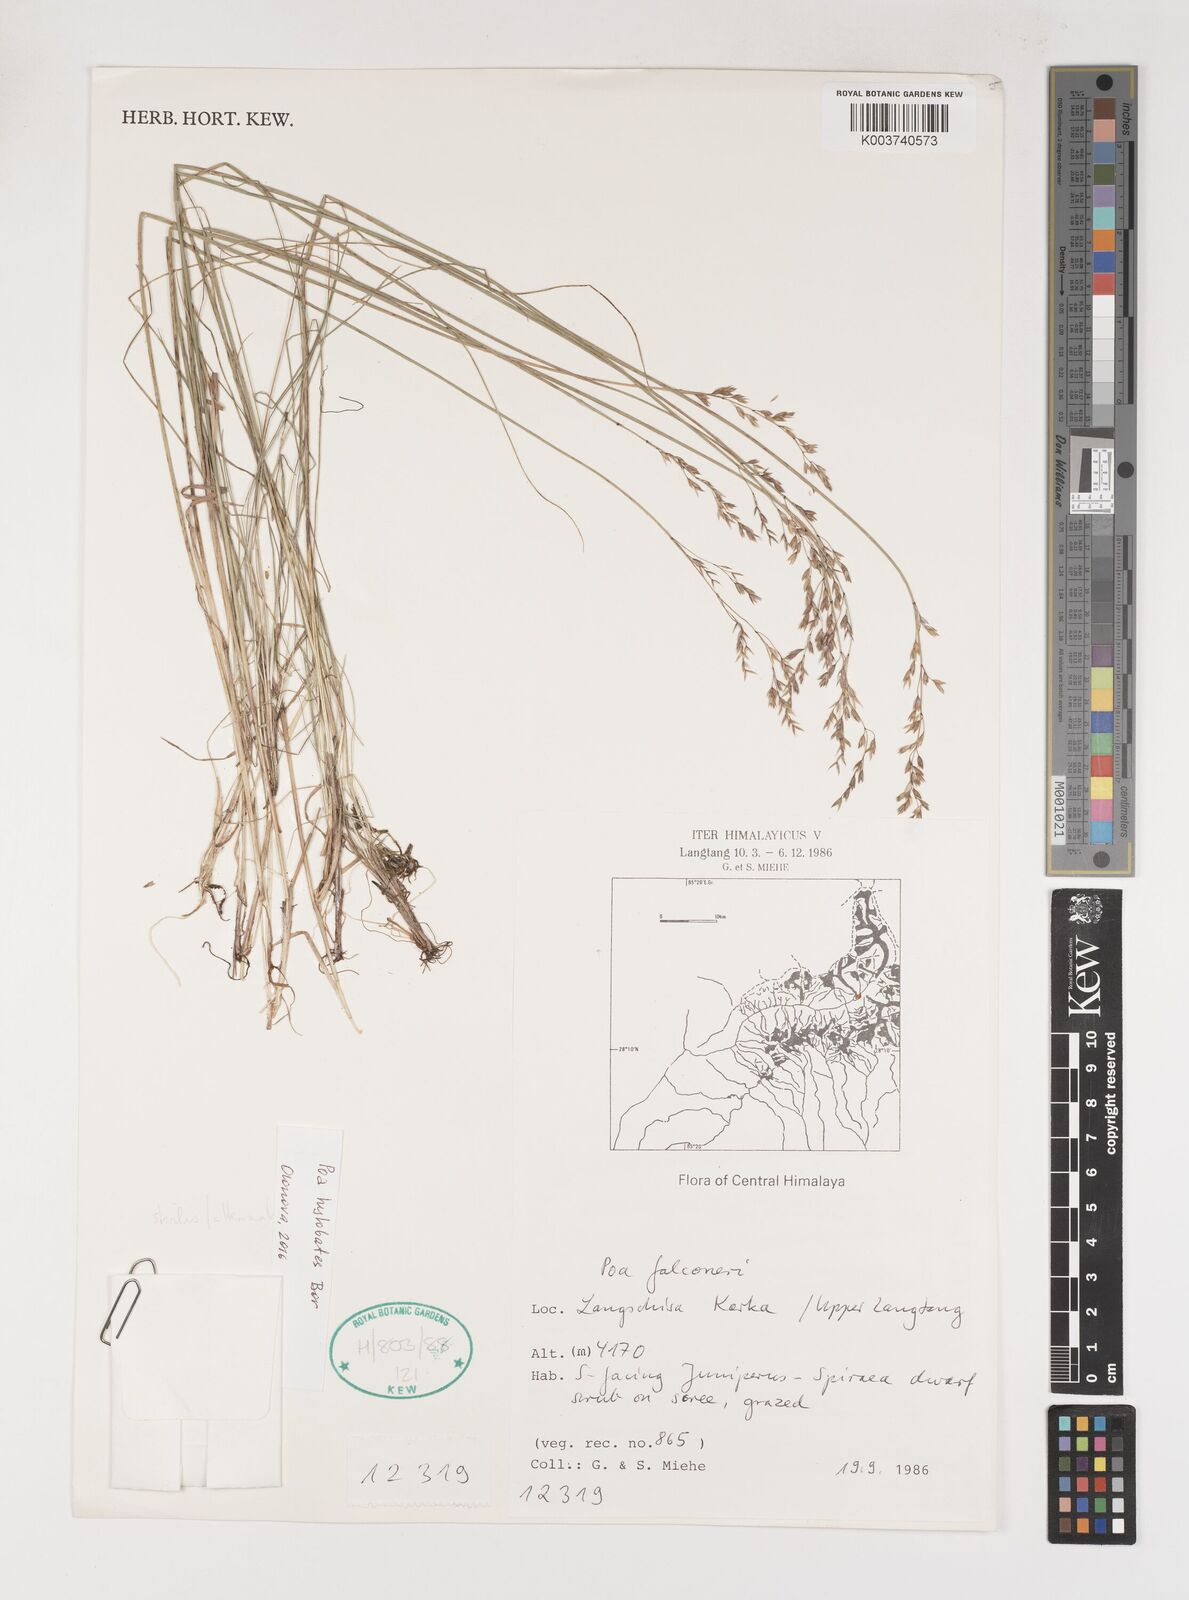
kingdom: Plantae
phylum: Tracheophyta
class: Liliopsida
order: Poales
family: Poaceae
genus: Poa
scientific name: Poa sterilis
